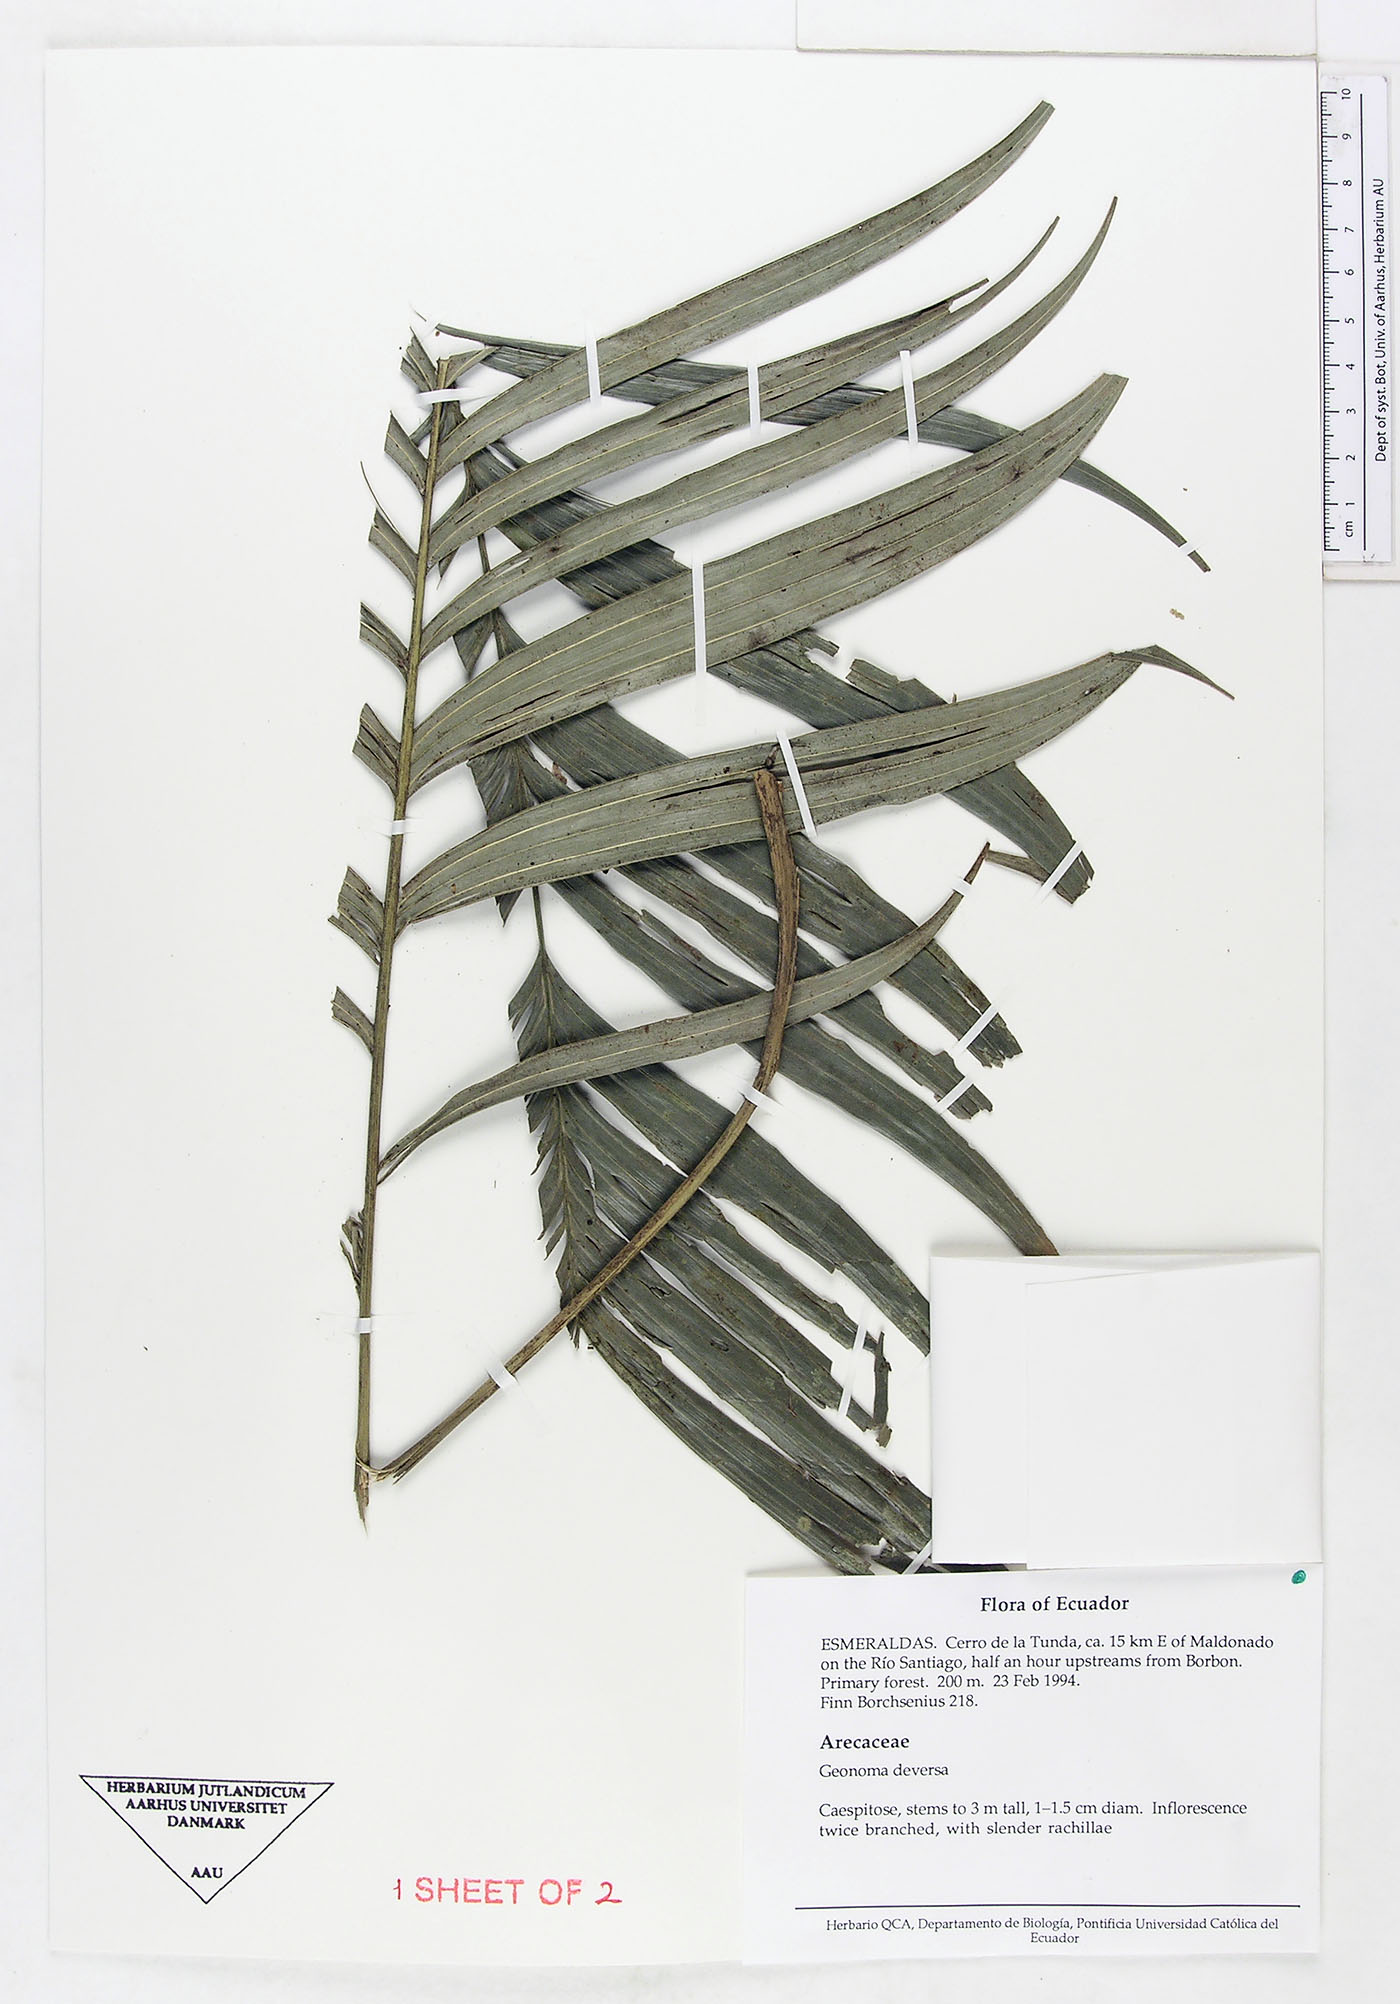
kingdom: Plantae
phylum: Tracheophyta
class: Liliopsida
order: Arecales
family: Arecaceae
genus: Geonoma
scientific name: Geonoma deversa
